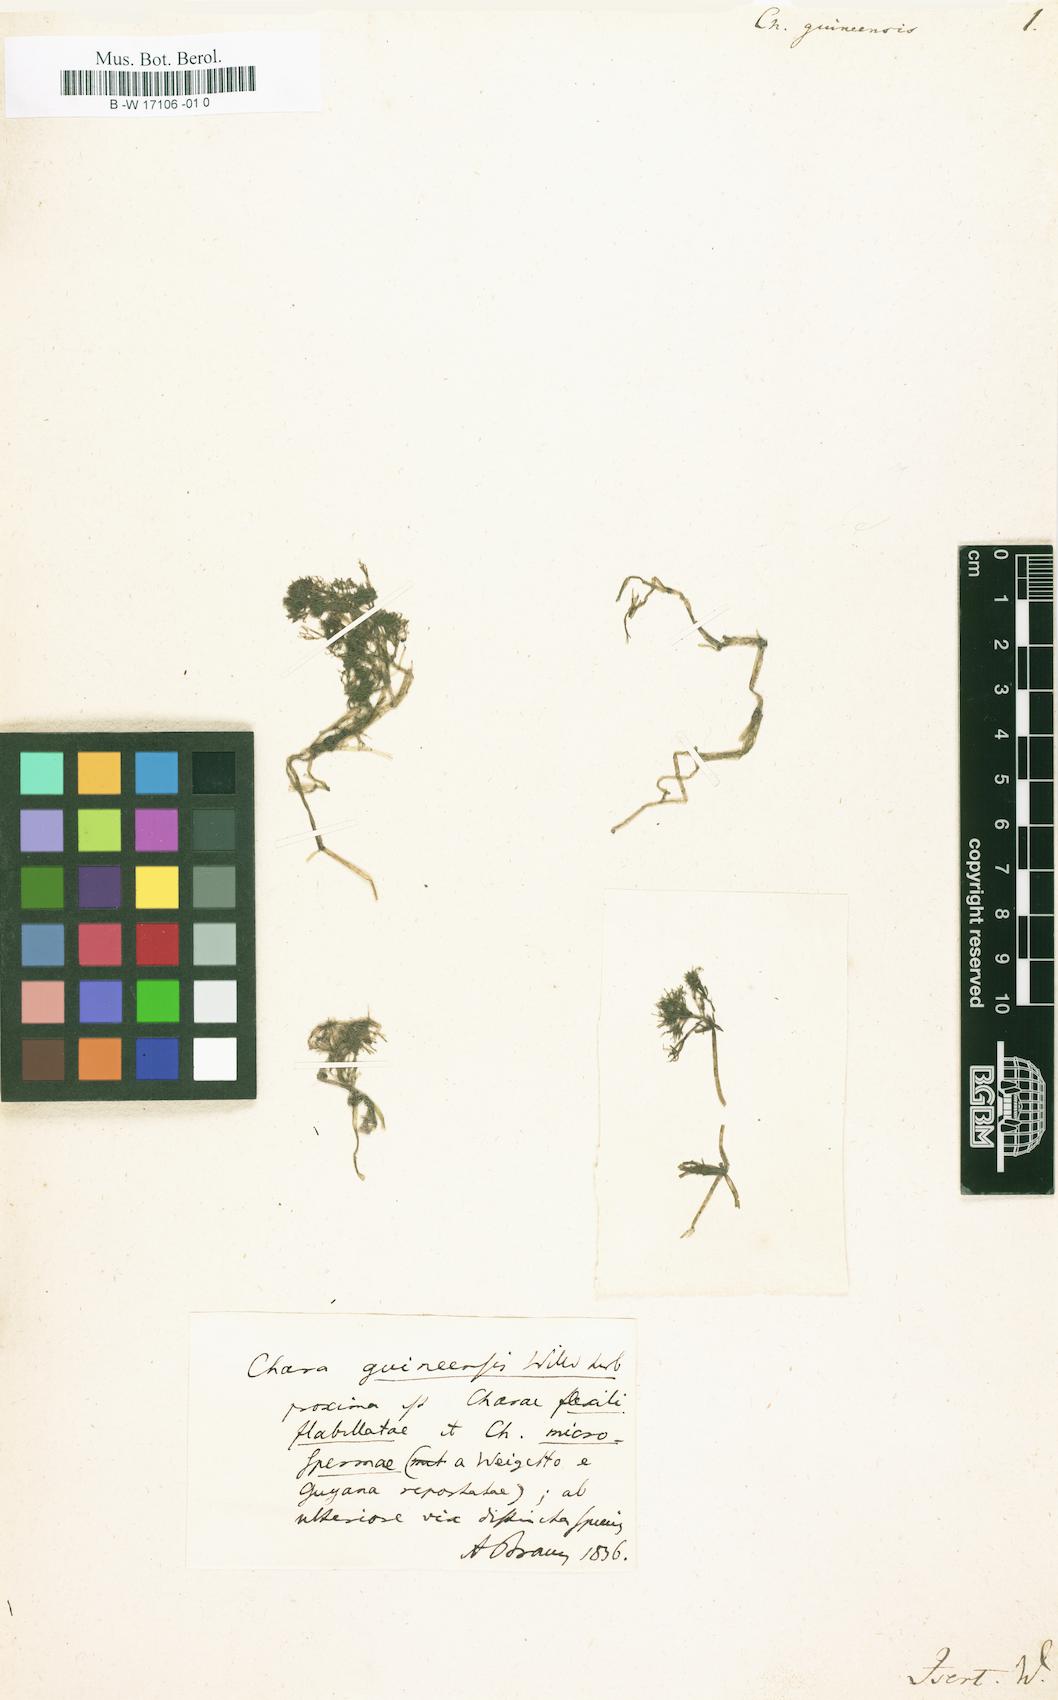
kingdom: Plantae
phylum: Charophyta
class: Charophyceae
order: Charales
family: Characeae
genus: Chara
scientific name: Chara
